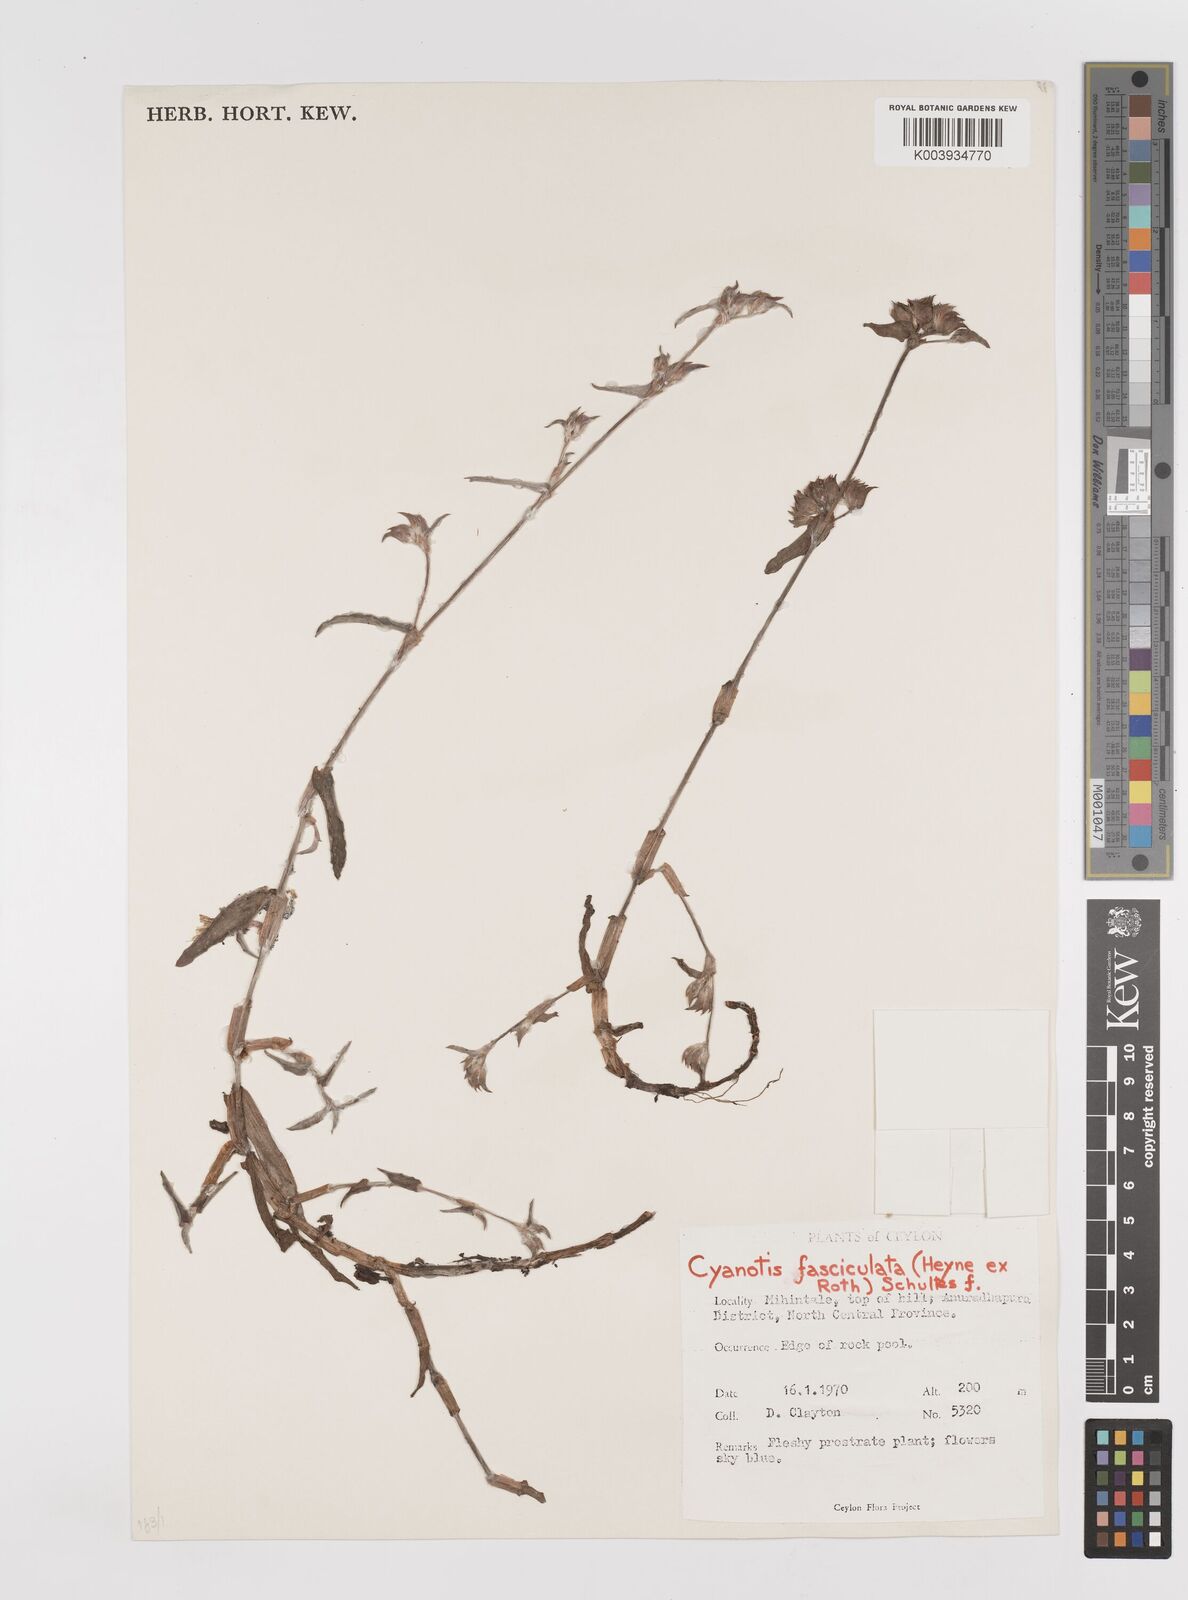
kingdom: Plantae
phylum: Tracheophyta
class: Liliopsida
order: Commelinales
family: Commelinaceae
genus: Cyanotis
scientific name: Cyanotis fasciculata
